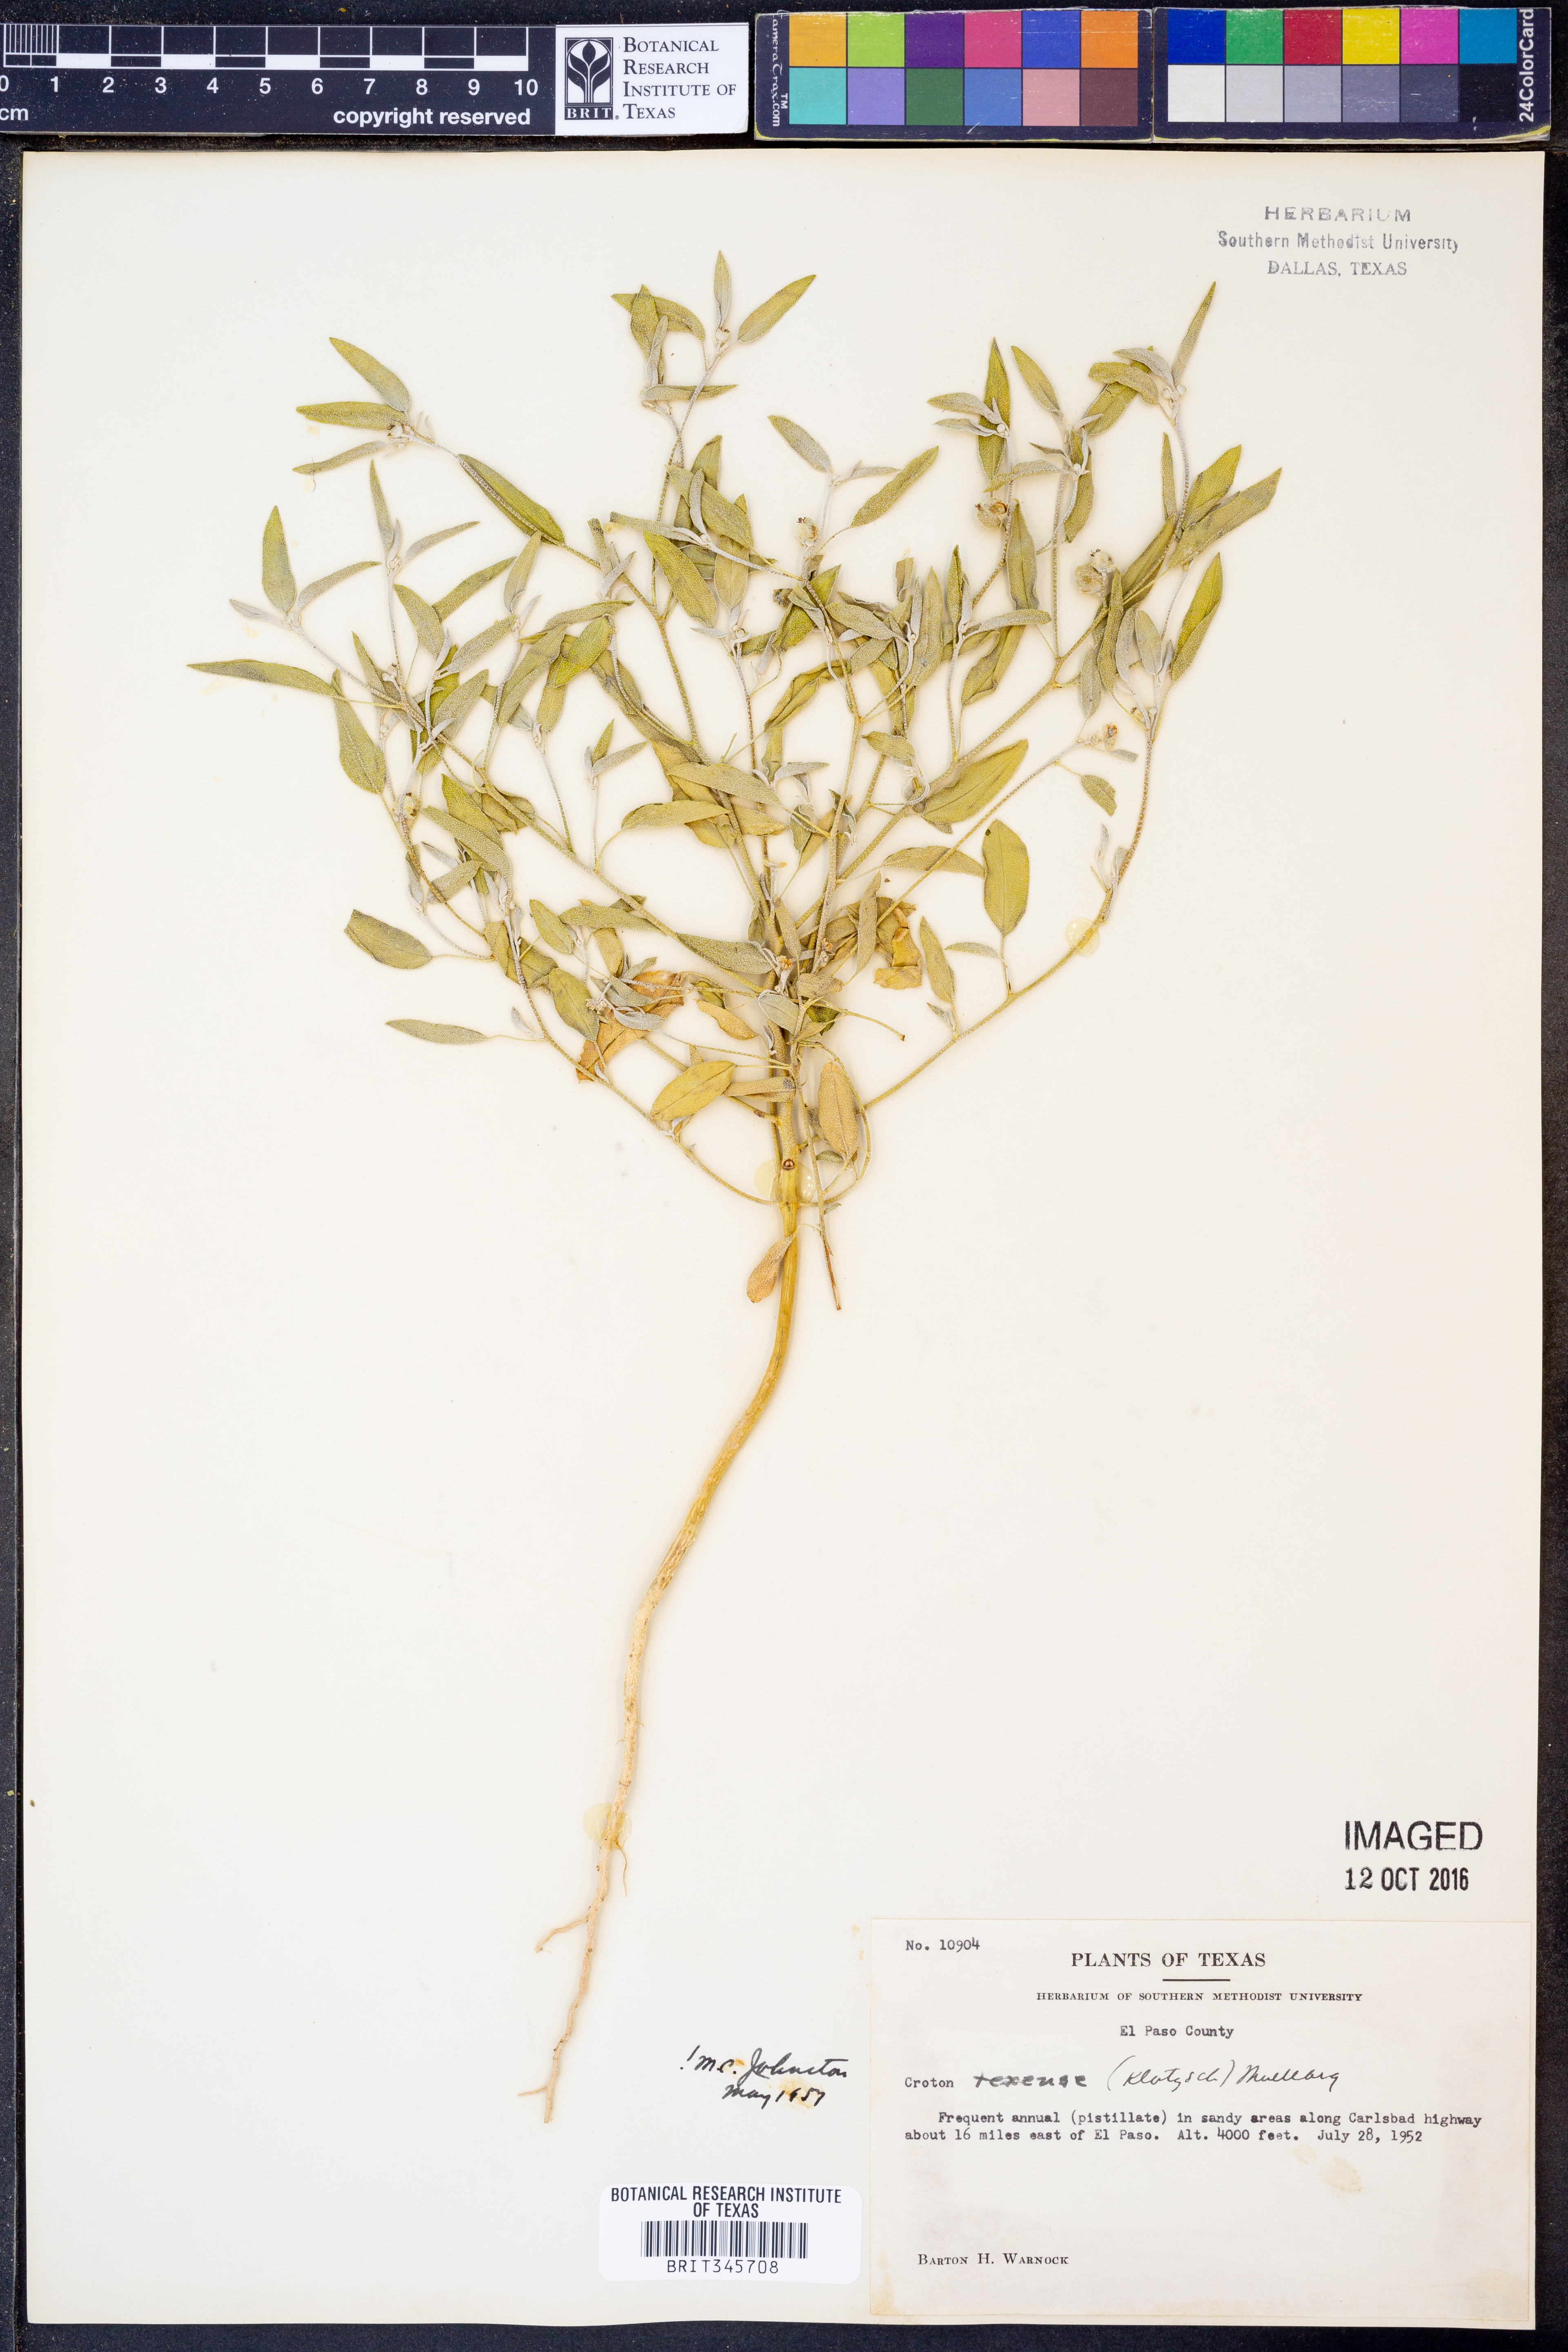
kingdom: Plantae
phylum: Tracheophyta
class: Magnoliopsida
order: Malpighiales
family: Euphorbiaceae
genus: Croton
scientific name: Croton texensis
